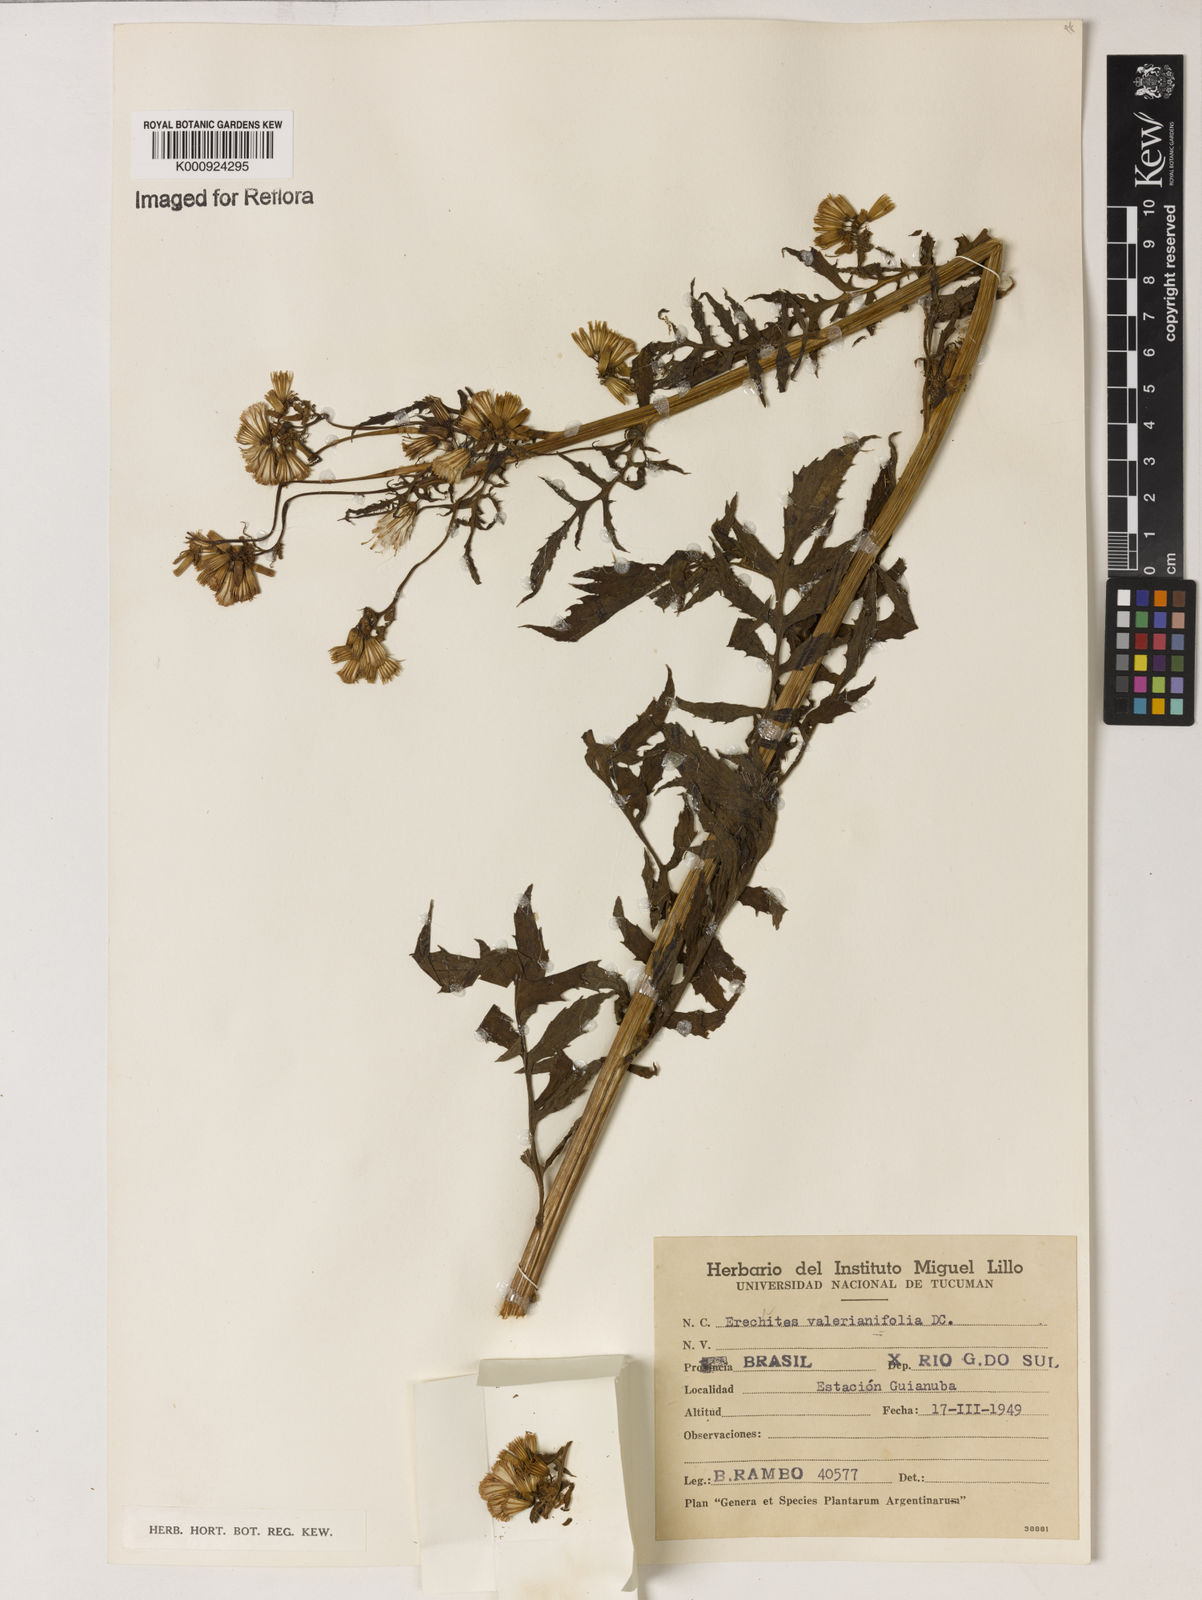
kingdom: Plantae
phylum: Tracheophyta
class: Magnoliopsida
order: Asterales
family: Asteraceae
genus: Erechtites
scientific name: Erechtites valerianifolius
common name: Tropical burnweed
